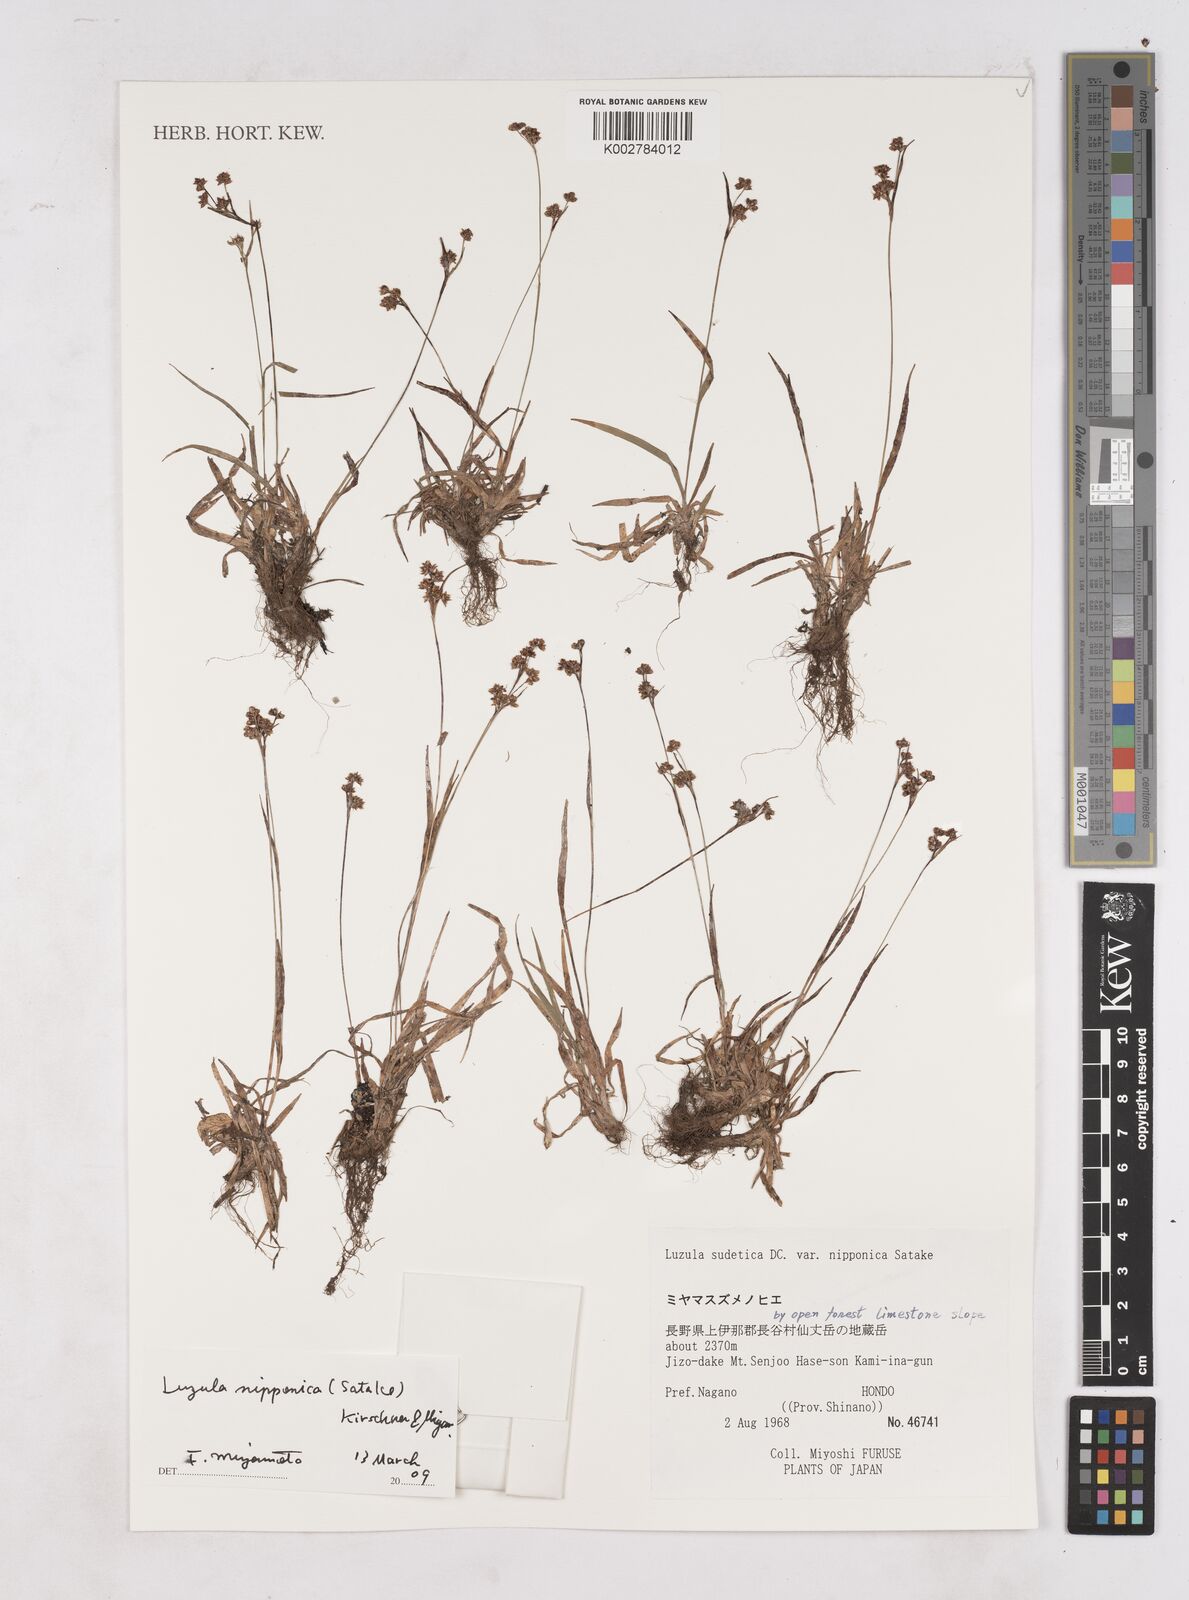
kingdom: Plantae
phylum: Tracheophyta
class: Liliopsida
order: Poales
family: Juncaceae
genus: Luzula
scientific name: Luzula nipponica
